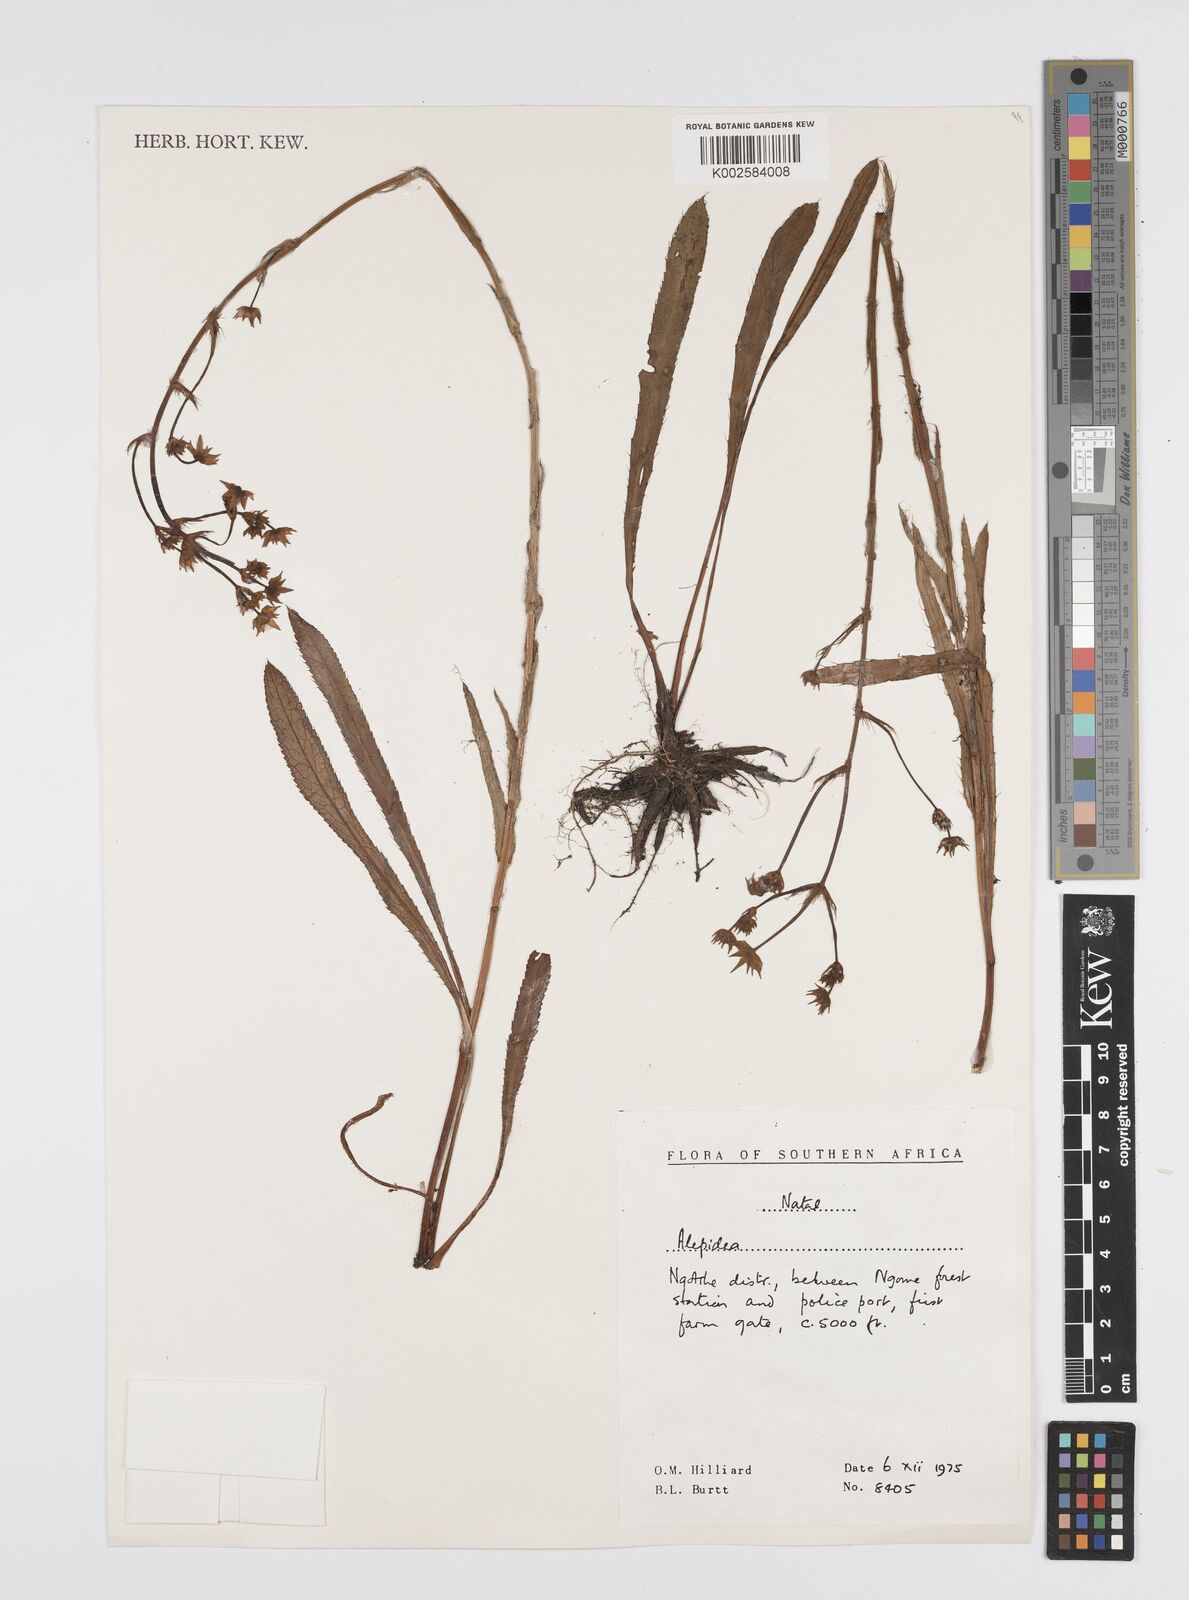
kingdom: Plantae
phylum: Tracheophyta
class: Magnoliopsida
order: Apiales
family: Apiaceae
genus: Alepidea
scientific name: Alepidea
